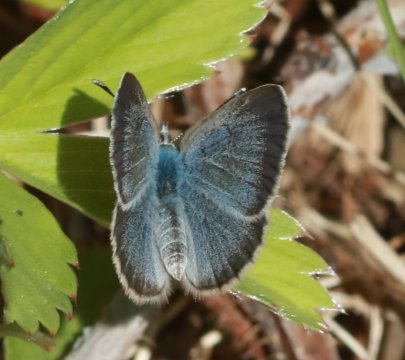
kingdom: Animalia
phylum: Arthropoda
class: Insecta
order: Lepidoptera
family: Lycaenidae
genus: Glaucopsyche
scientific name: Glaucopsyche lygdamus
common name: Silvery Blue
